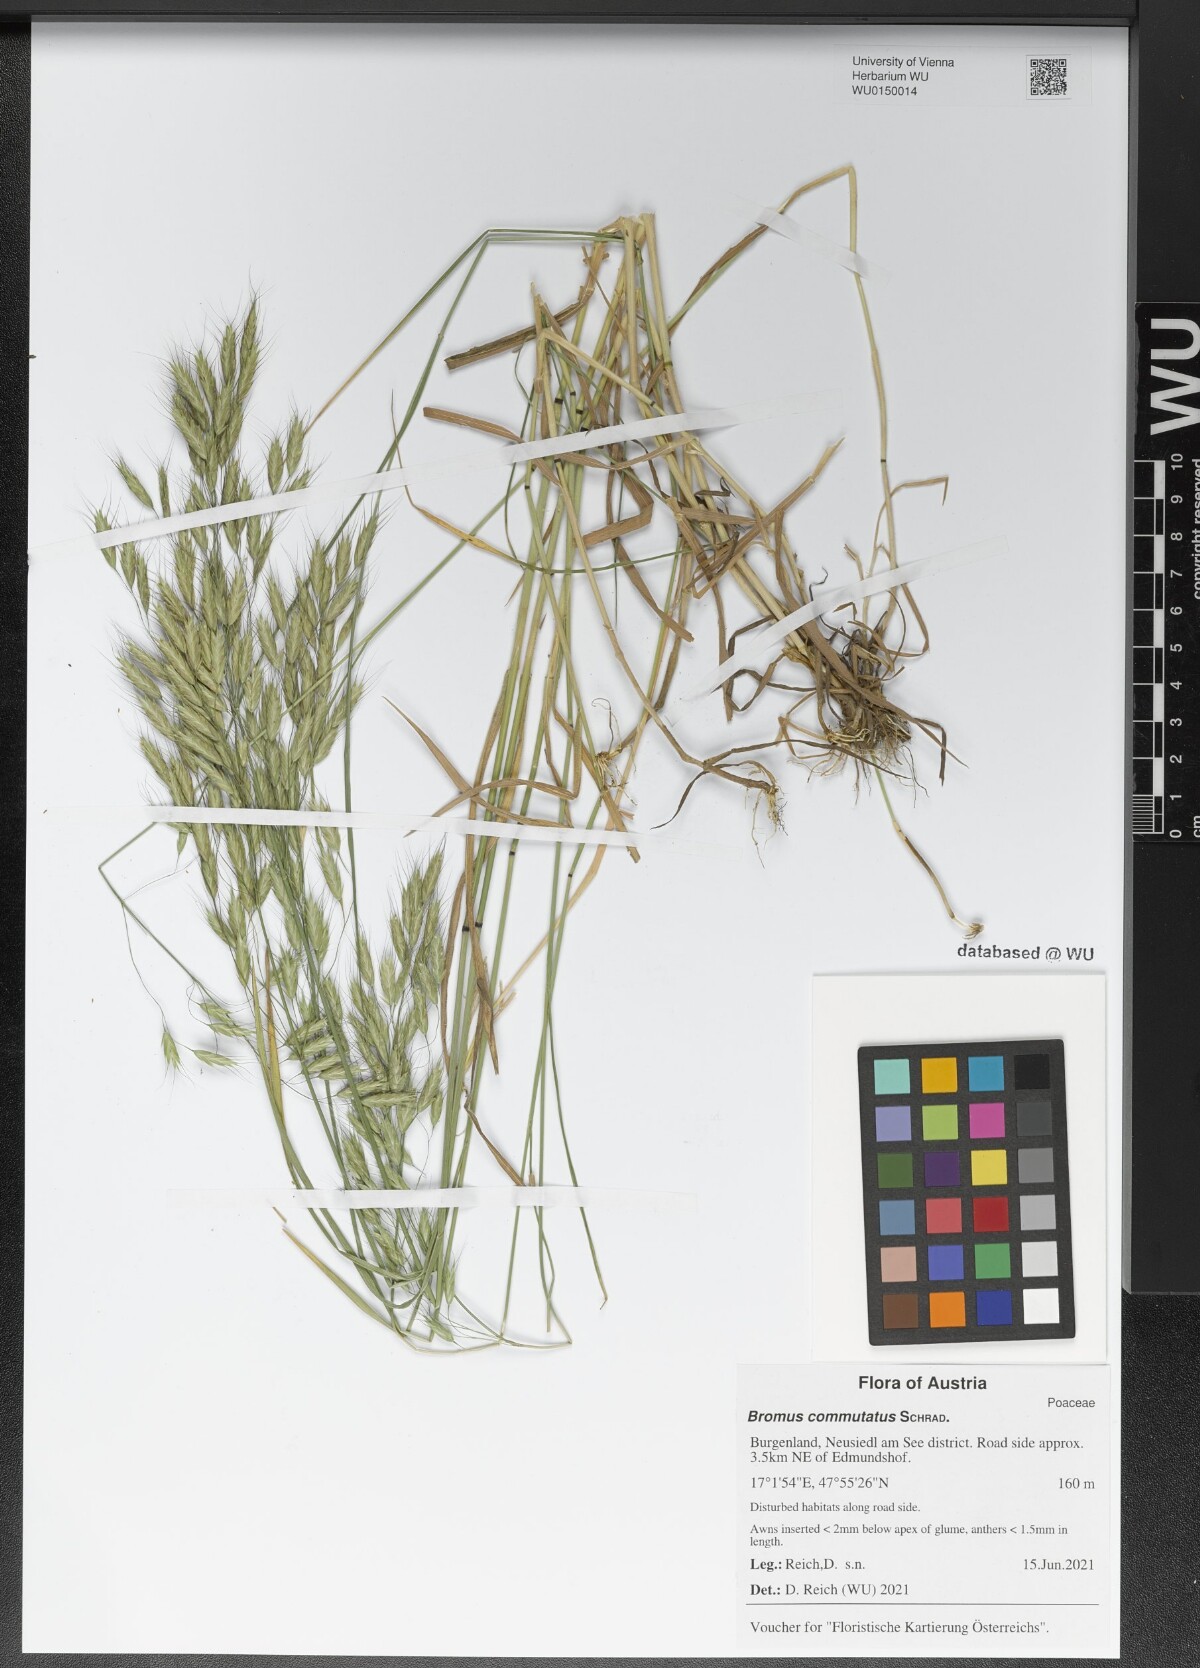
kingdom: Plantae
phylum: Tracheophyta
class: Liliopsida
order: Poales
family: Poaceae
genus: Bromus
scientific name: Bromus commutatus
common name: Meadow brome
